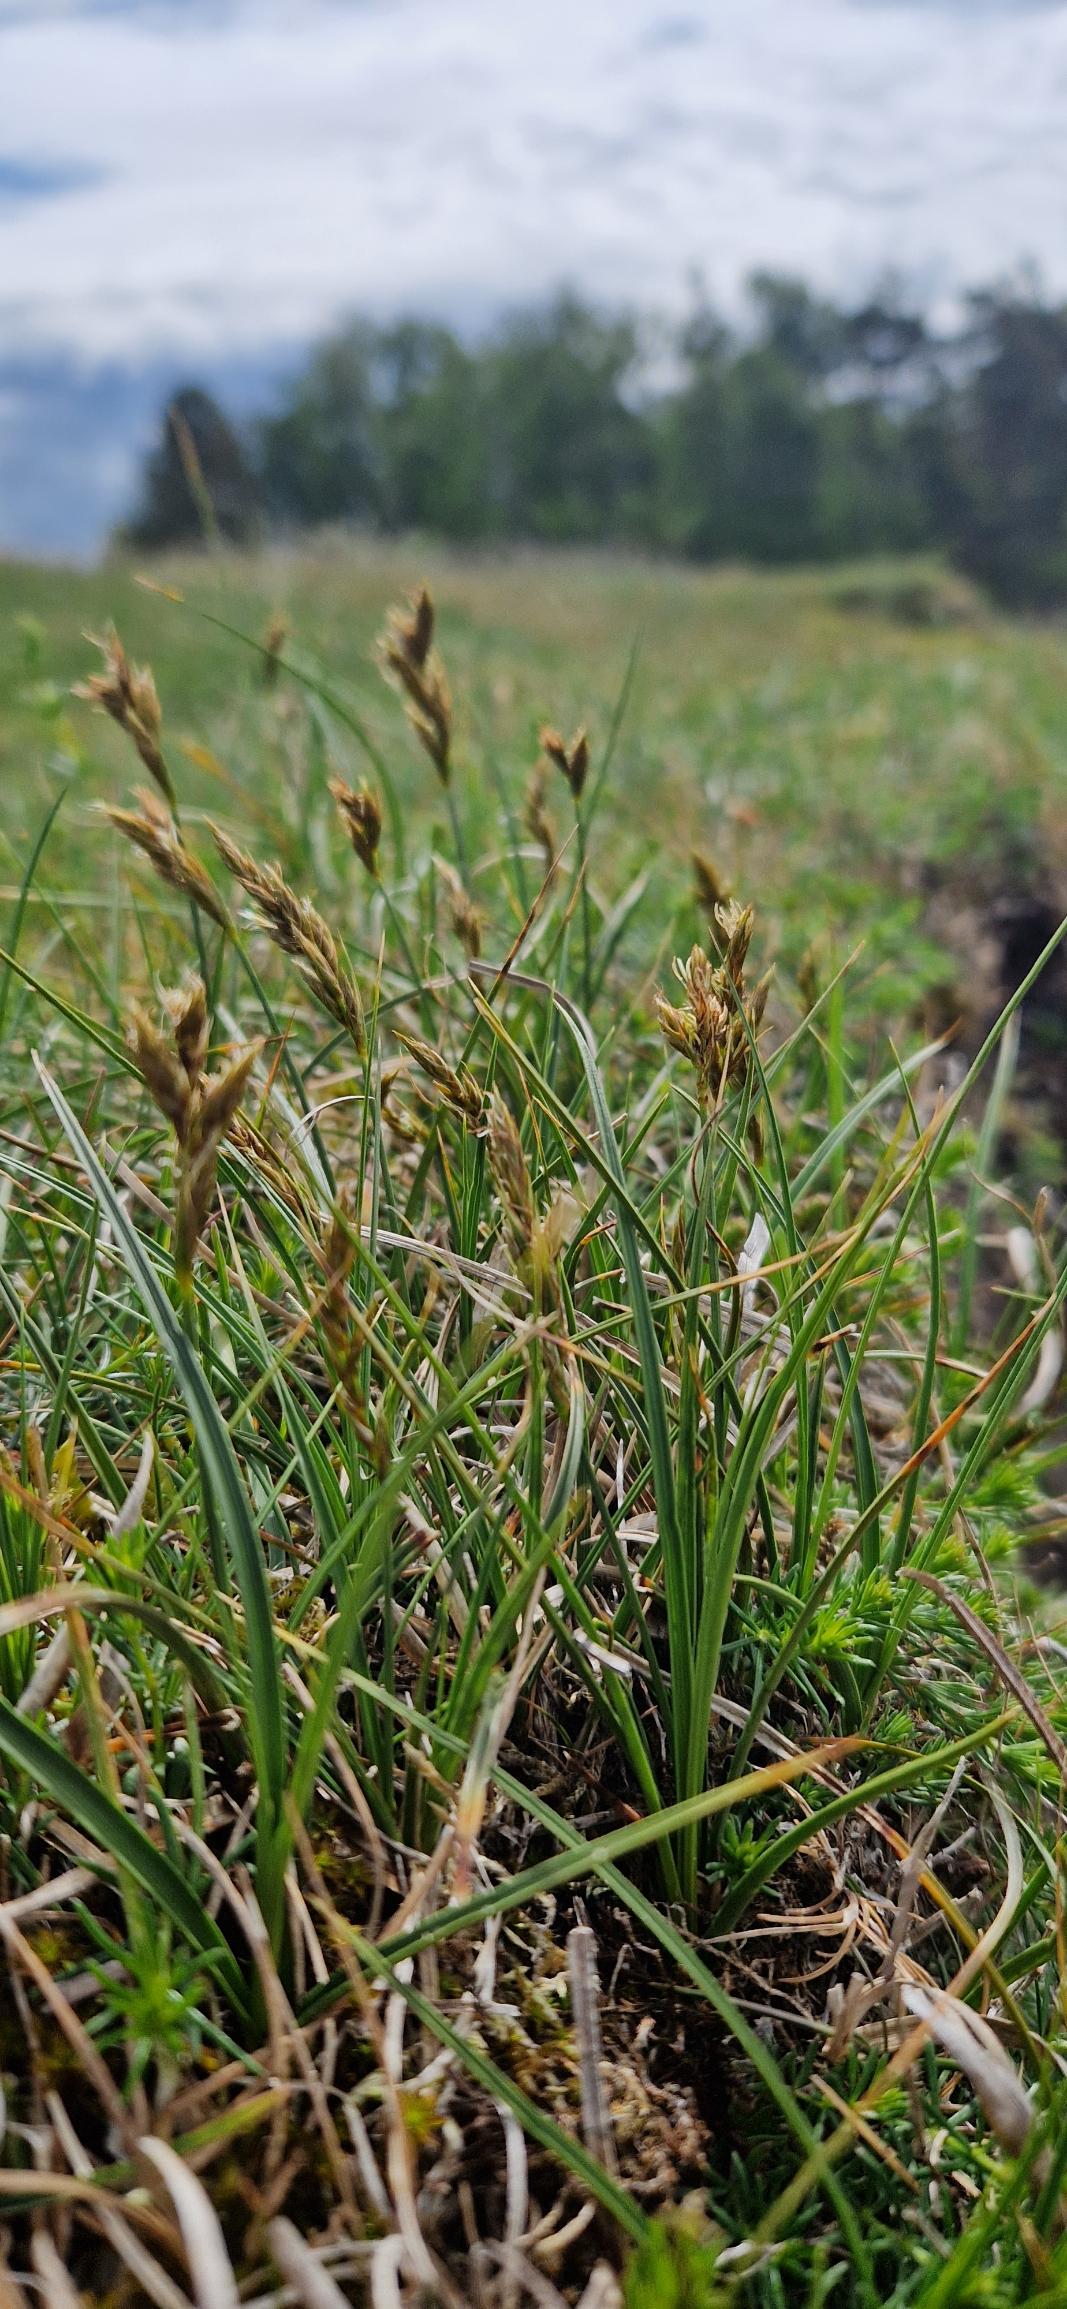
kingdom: Plantae
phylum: Tracheophyta
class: Liliopsida
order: Poales
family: Cyperaceae
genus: Carex
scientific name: Carex arenaria
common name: Sand-star
